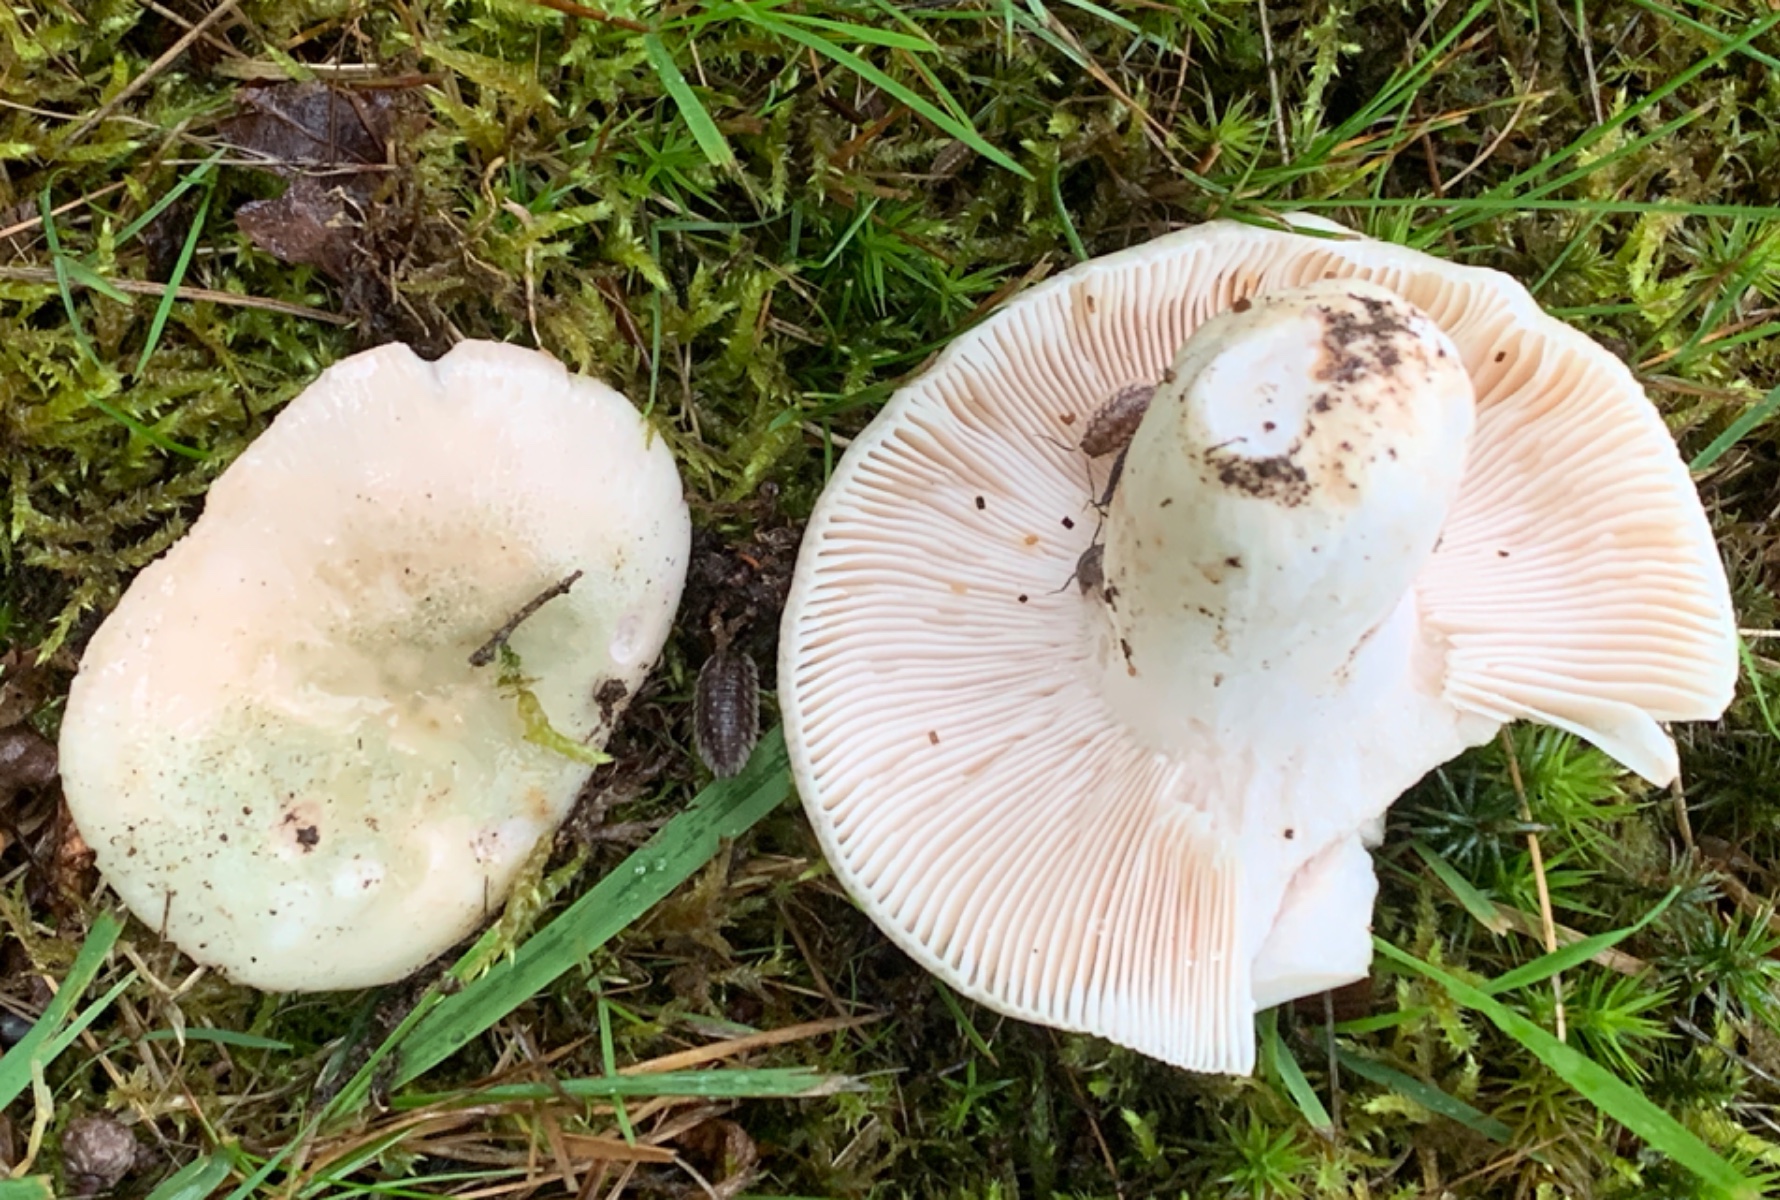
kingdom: Fungi
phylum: Basidiomycota
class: Agaricomycetes
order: Russulales
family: Russulaceae
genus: Russula
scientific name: Russula virescens
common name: spanskgrøn skørhat
